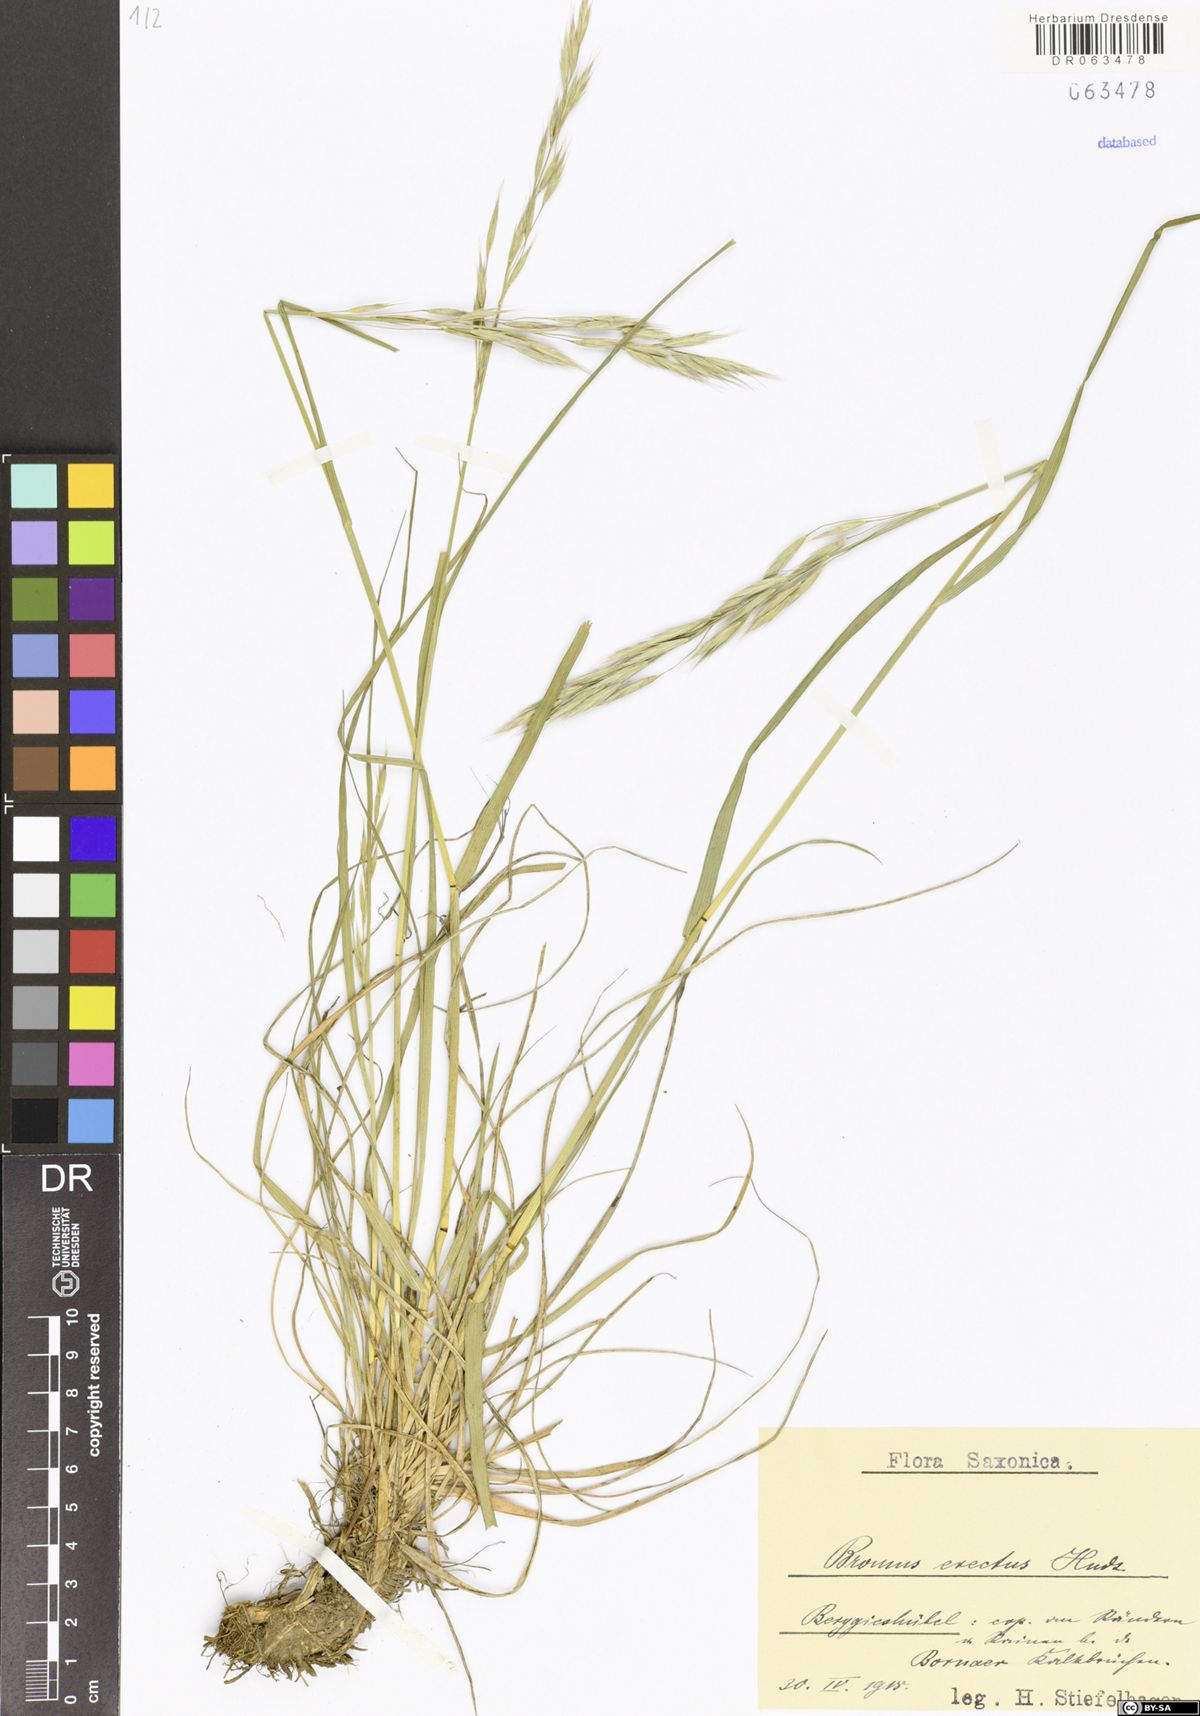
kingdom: Plantae
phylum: Tracheophyta
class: Liliopsida
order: Poales
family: Poaceae
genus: Bromus
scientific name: Bromus erectus
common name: Erect brome
